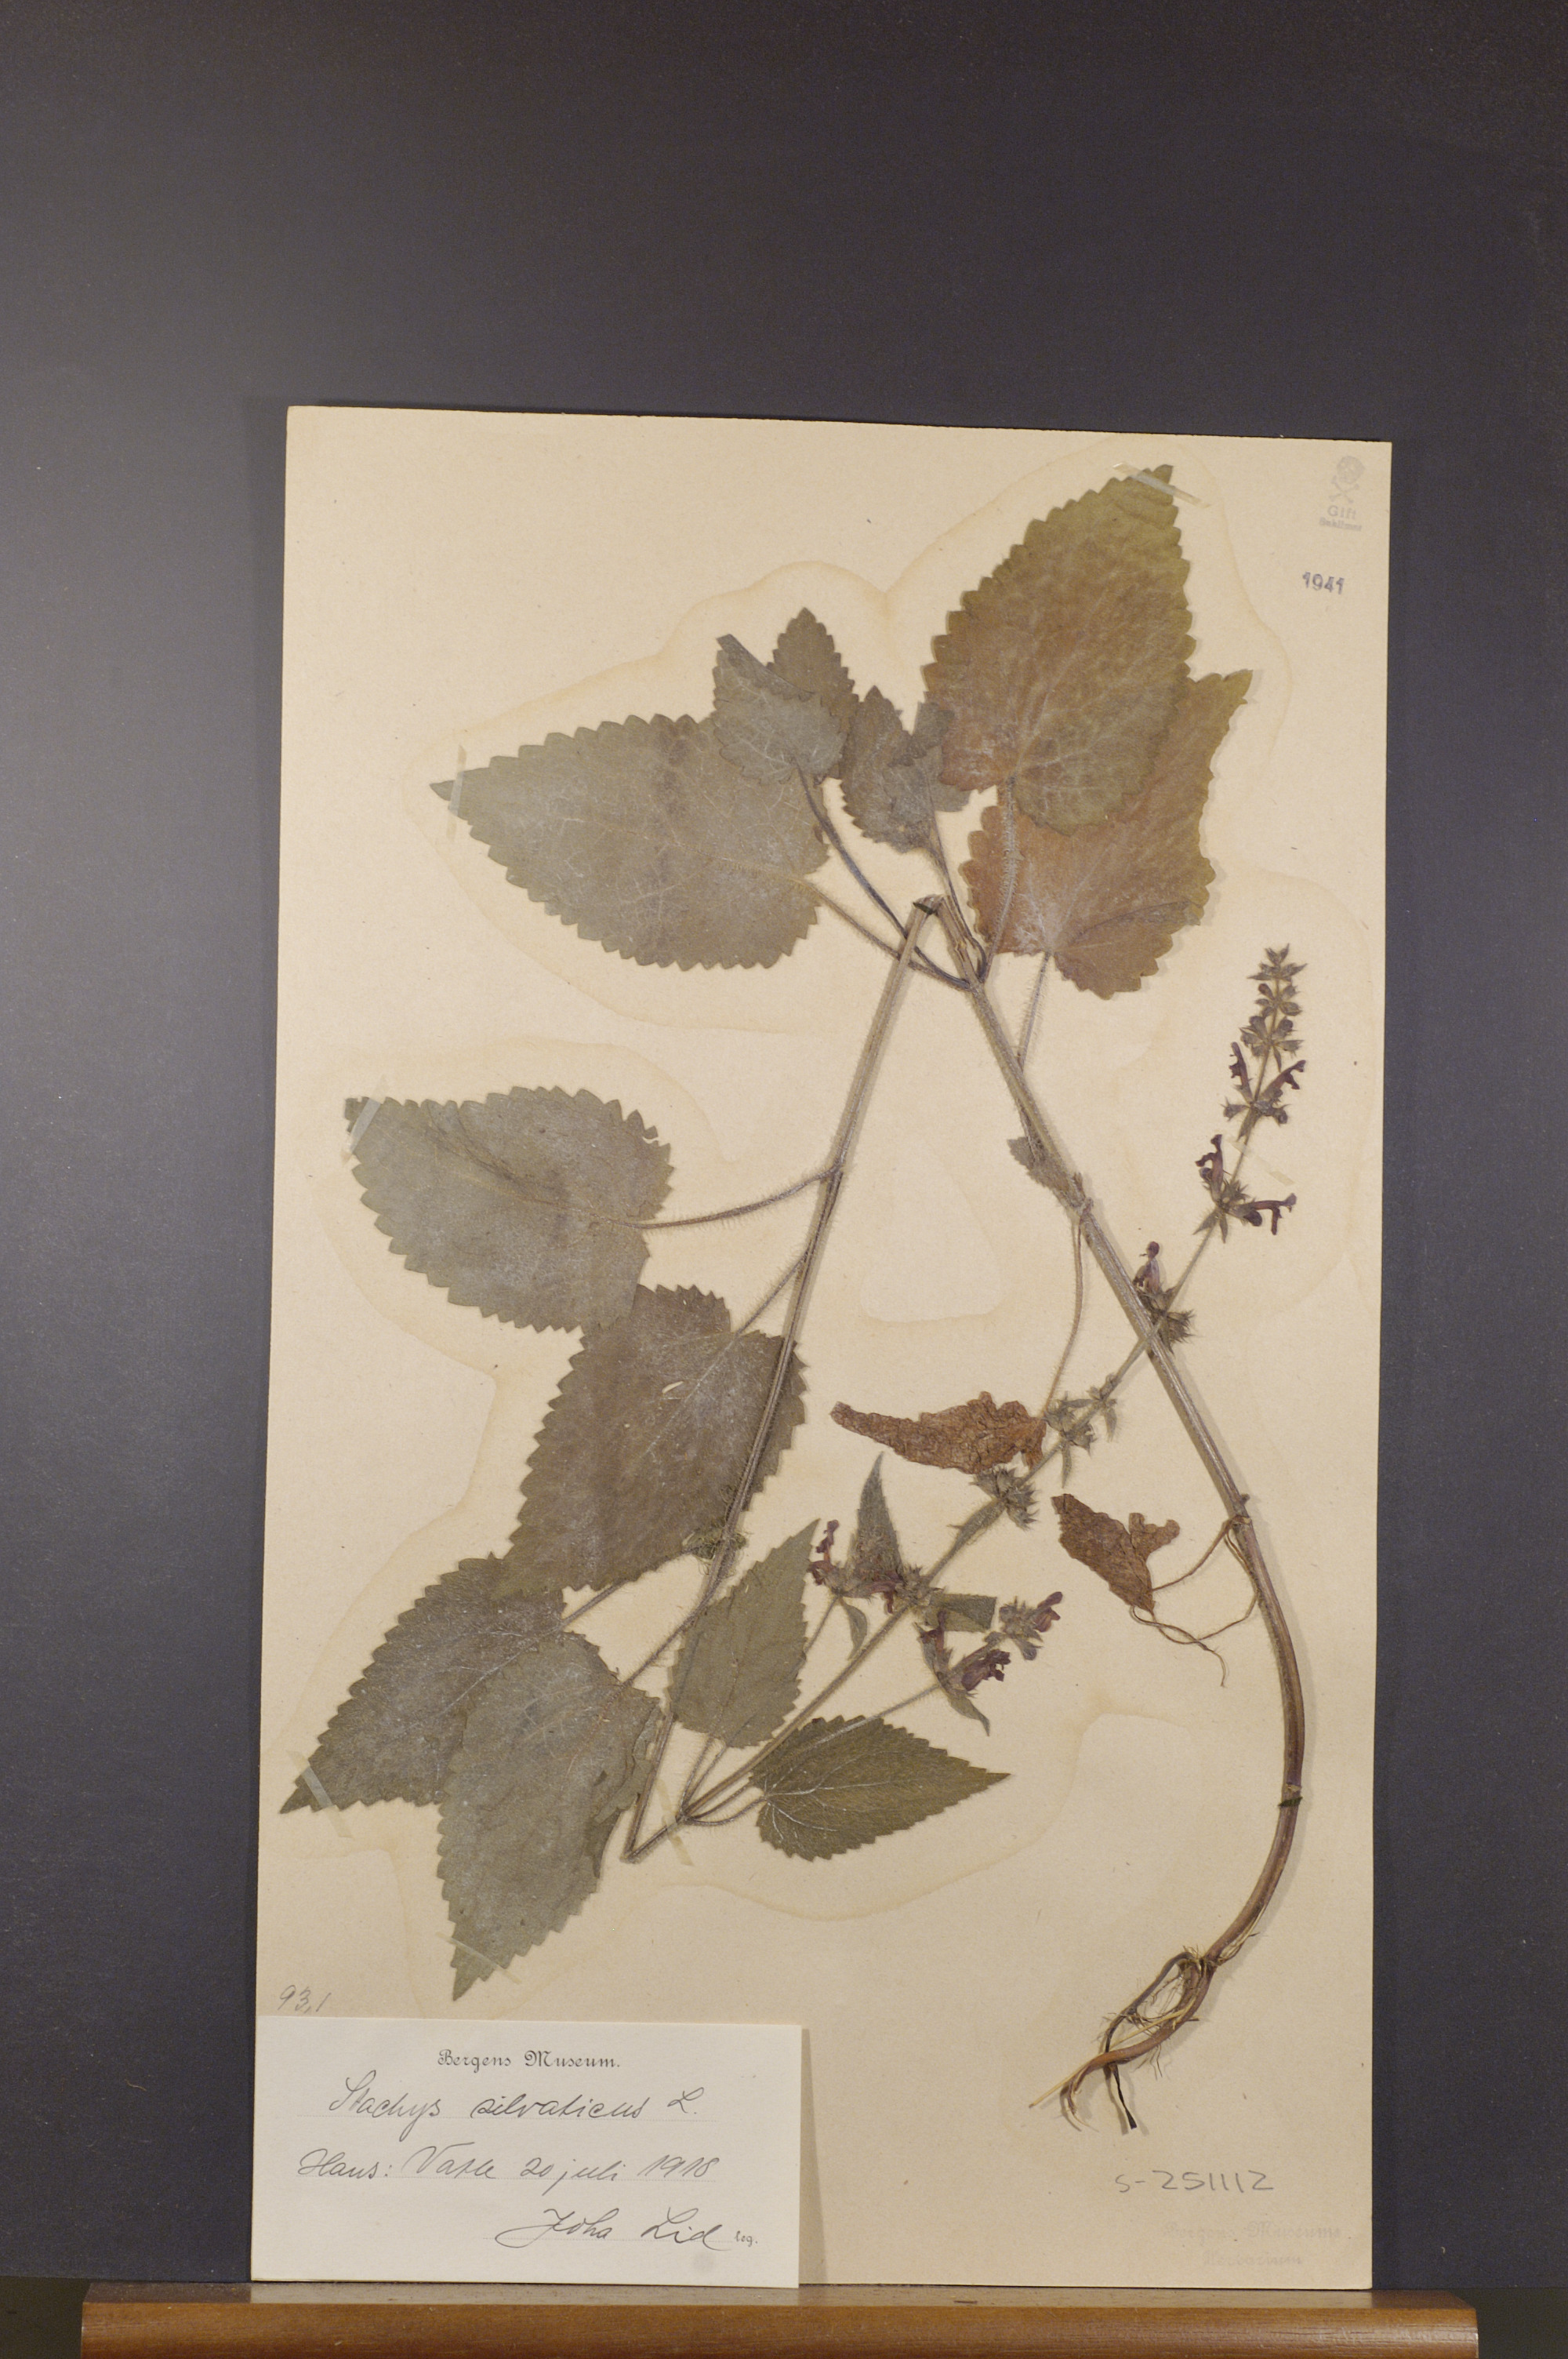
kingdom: Plantae
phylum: Tracheophyta
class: Magnoliopsida
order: Lamiales
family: Lamiaceae
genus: Stachys
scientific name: Stachys sylvatica
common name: Hedge woundwort
